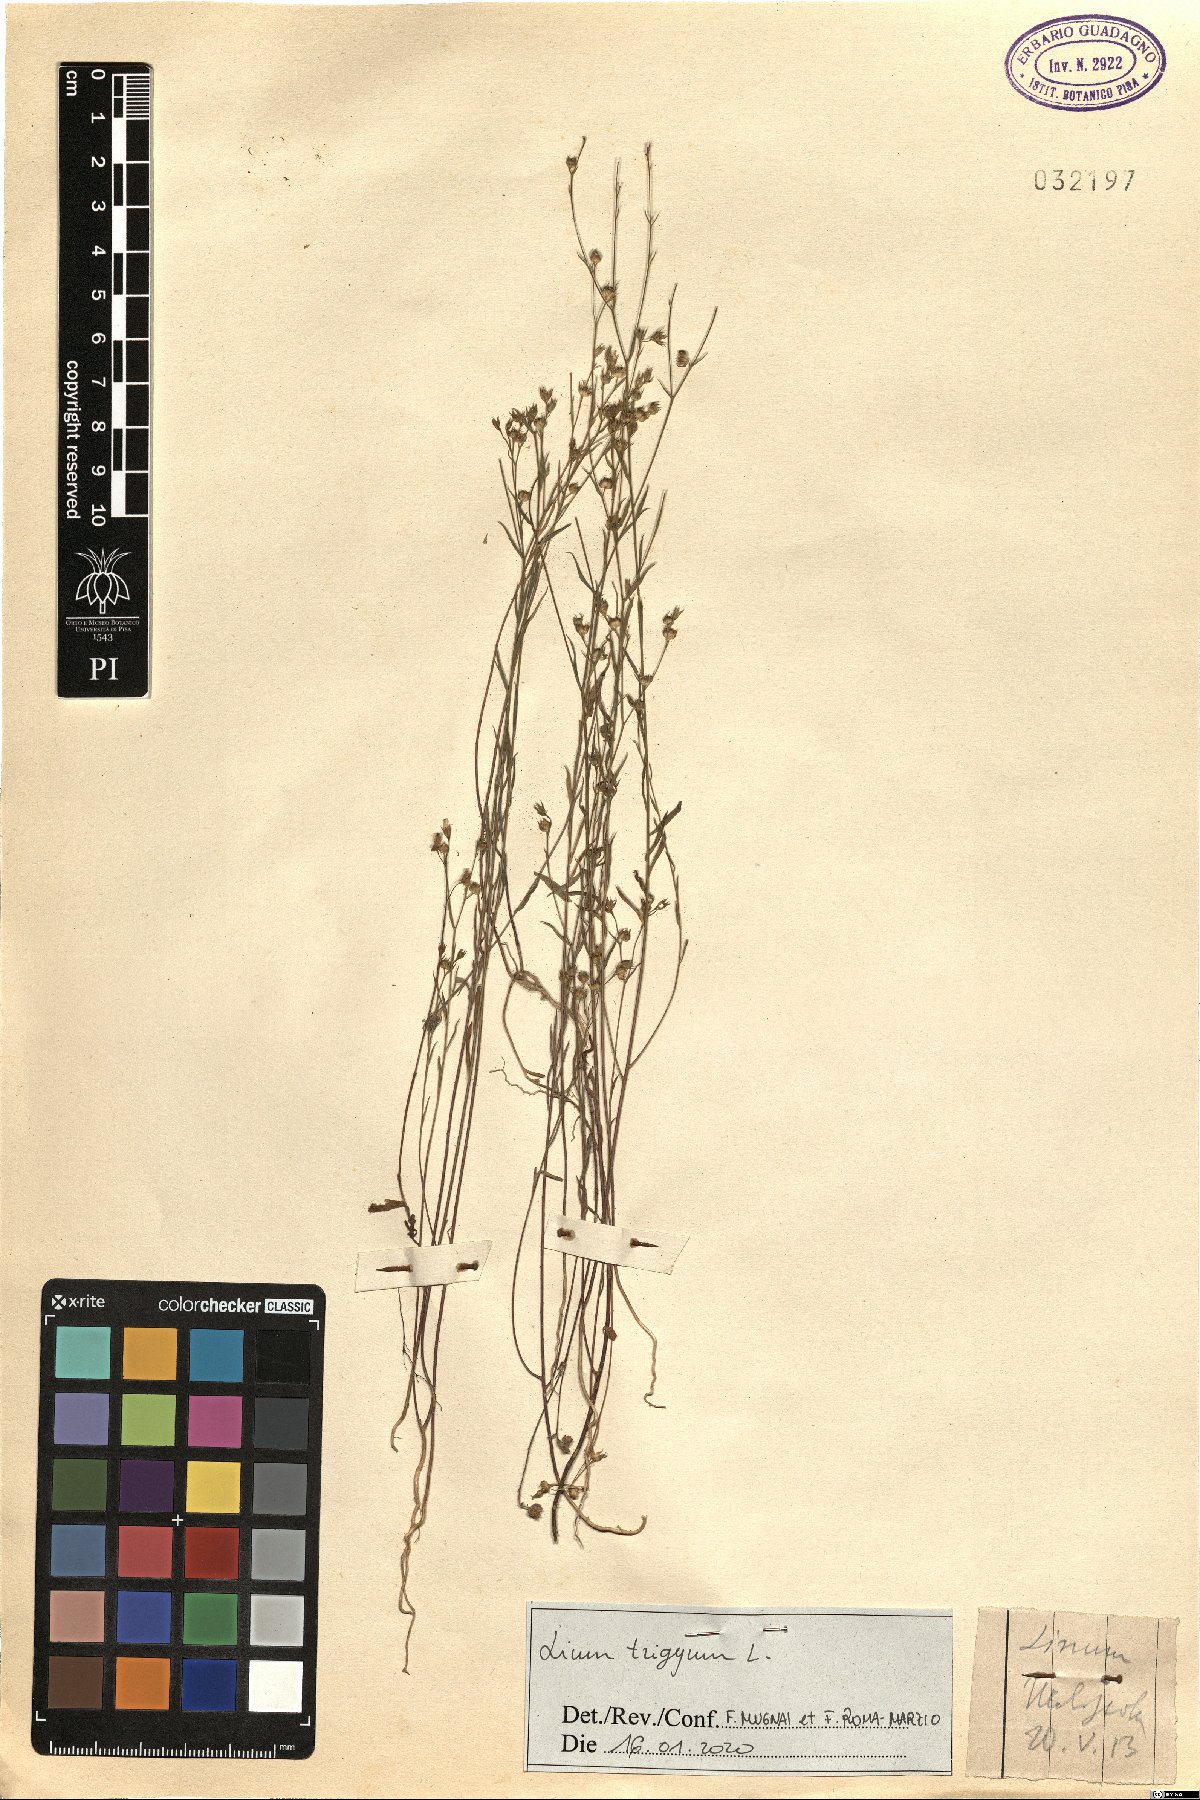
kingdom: Plantae
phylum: Tracheophyta
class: Magnoliopsida
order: Malpighiales
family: Linaceae
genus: Linum
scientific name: Linum trigynum
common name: French flax
